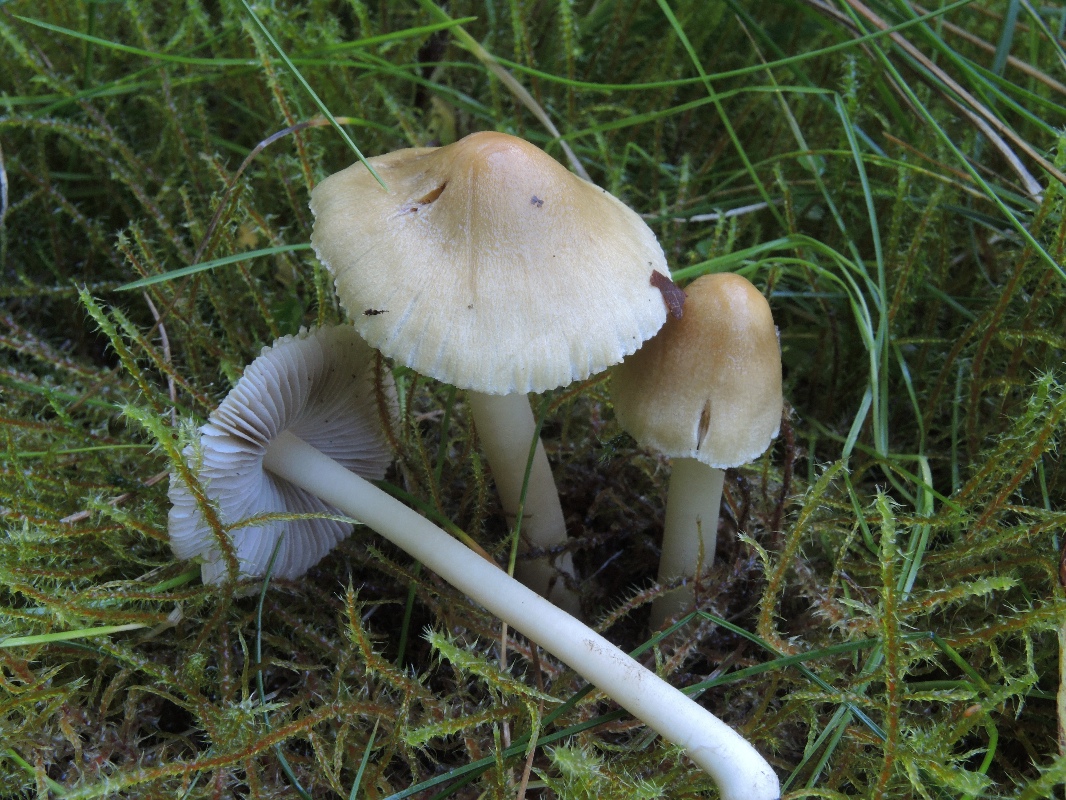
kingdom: Fungi
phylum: Basidiomycota
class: Agaricomycetes
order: Agaricales
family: Inocybaceae
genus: Inocybe
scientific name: Inocybe mixtilis
